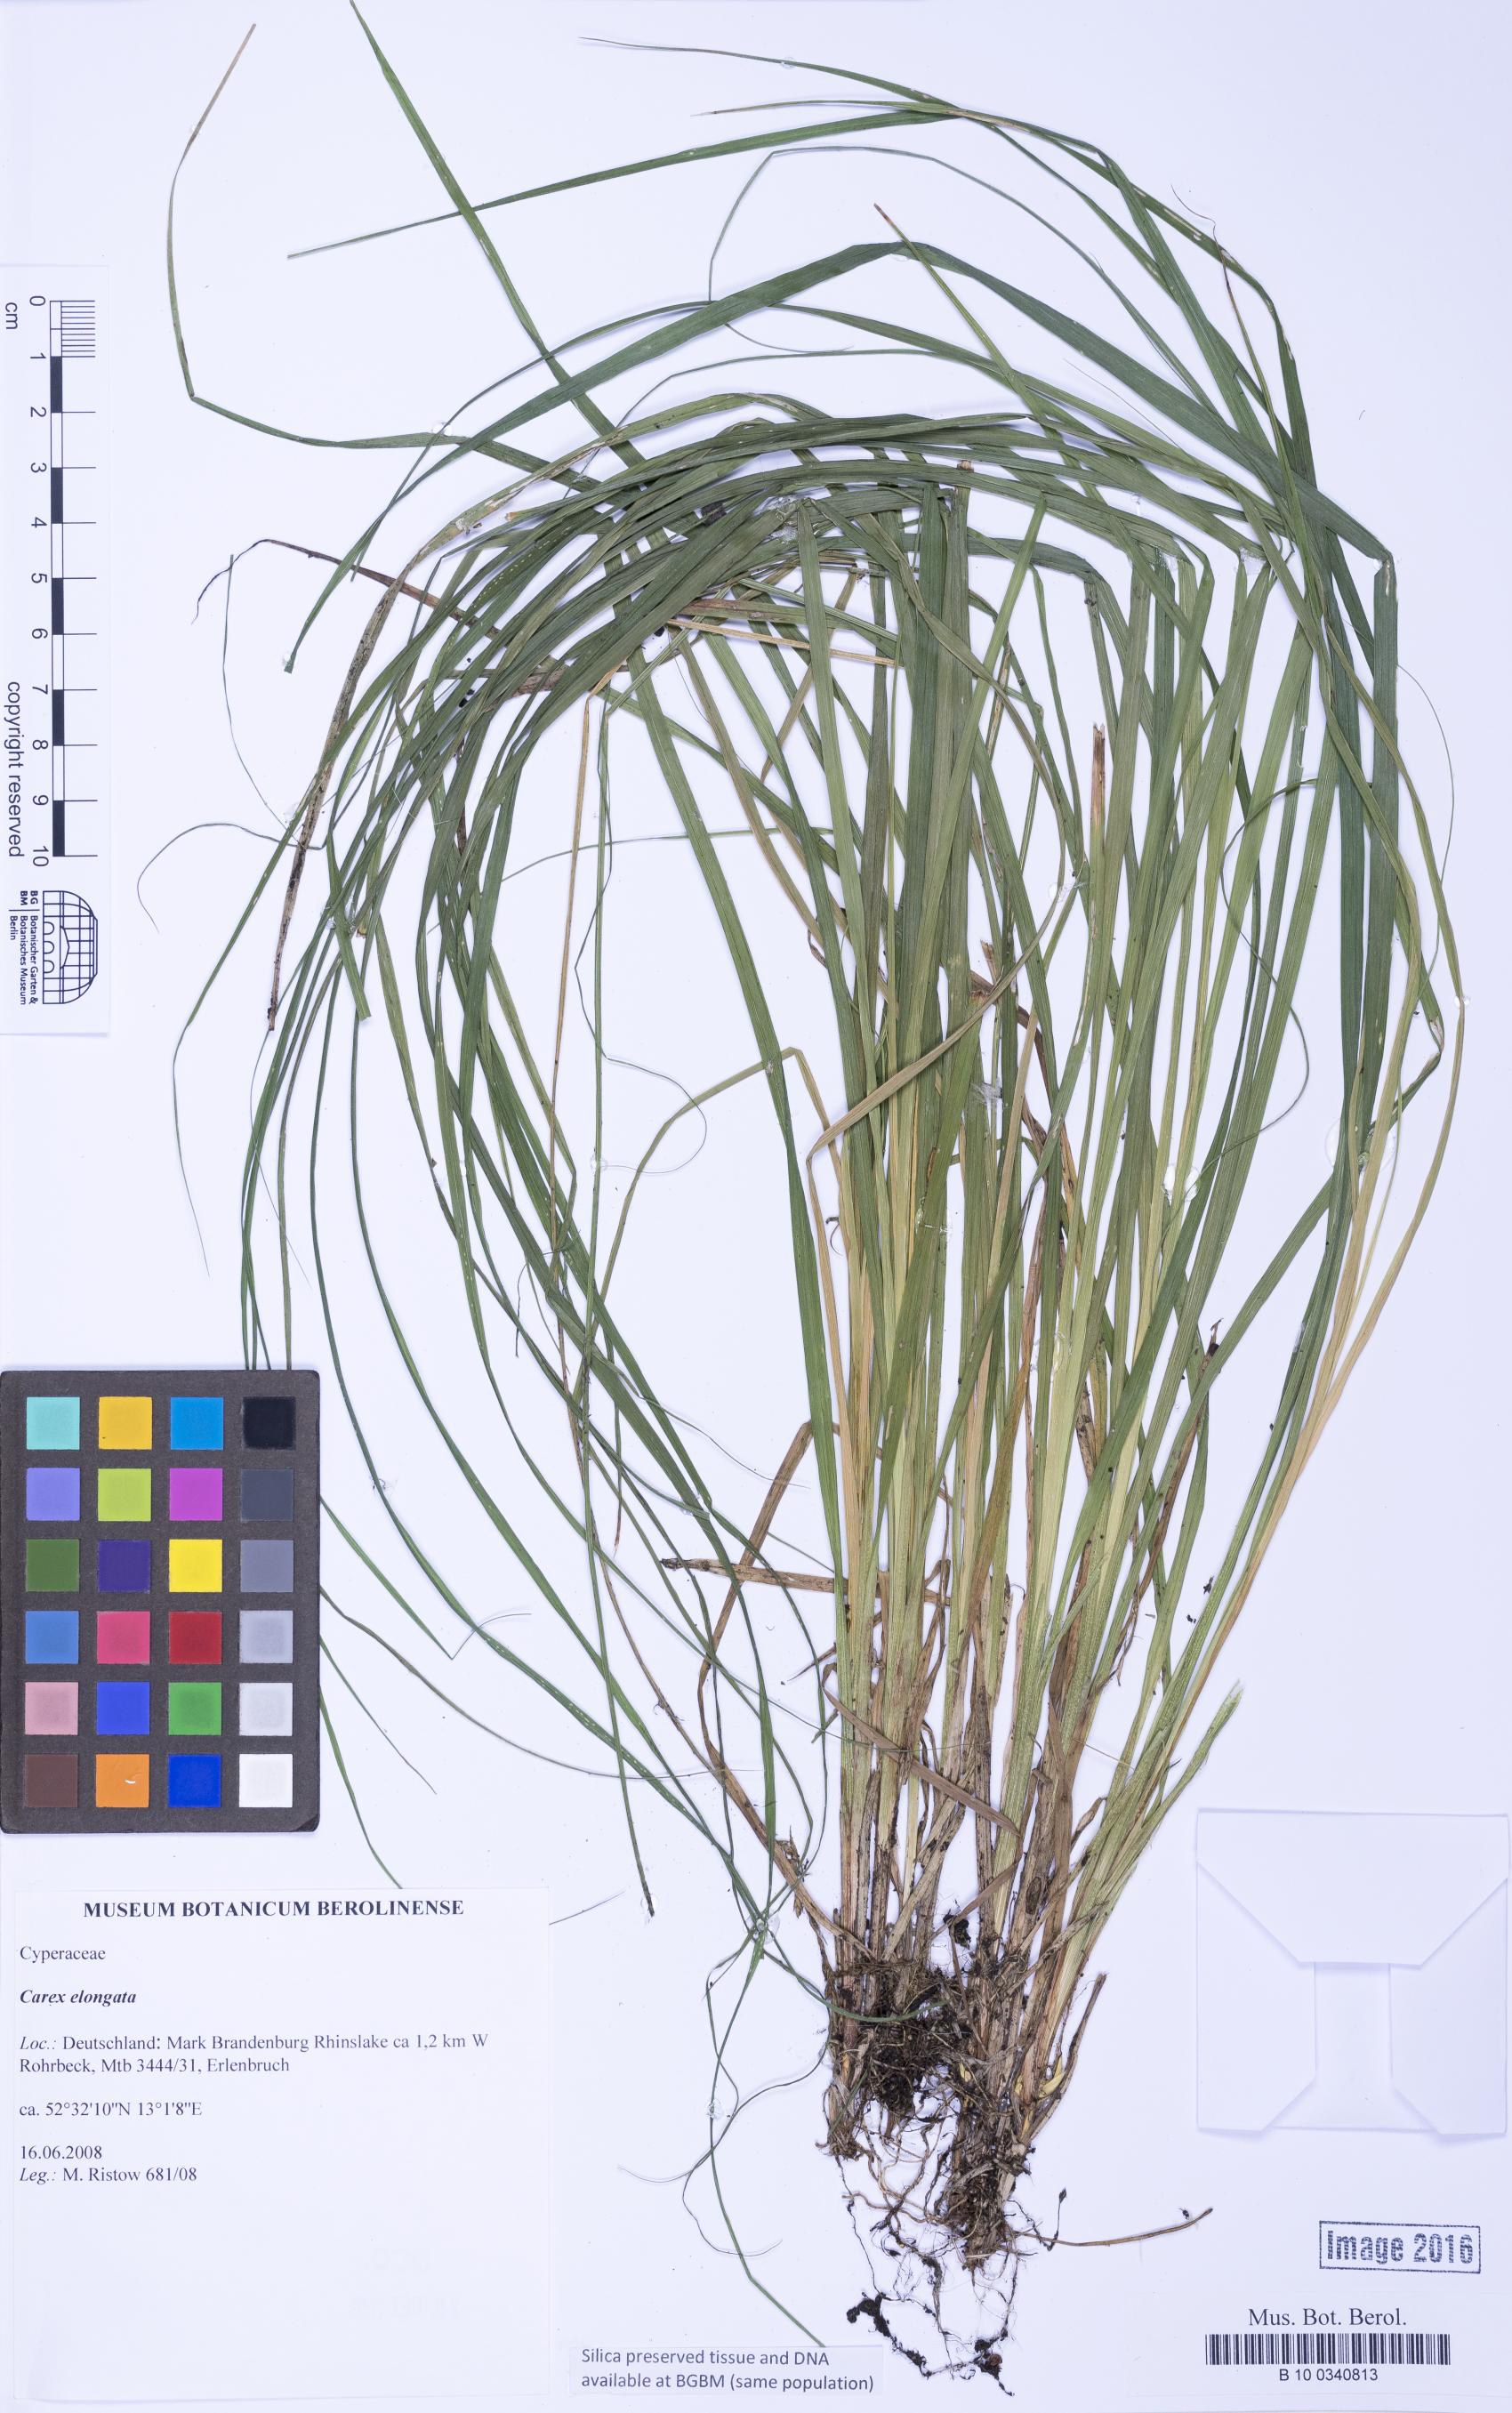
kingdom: Plantae
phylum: Tracheophyta
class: Liliopsida
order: Poales
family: Cyperaceae
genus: Carex
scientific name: Carex elongata
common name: Elongated sedge
